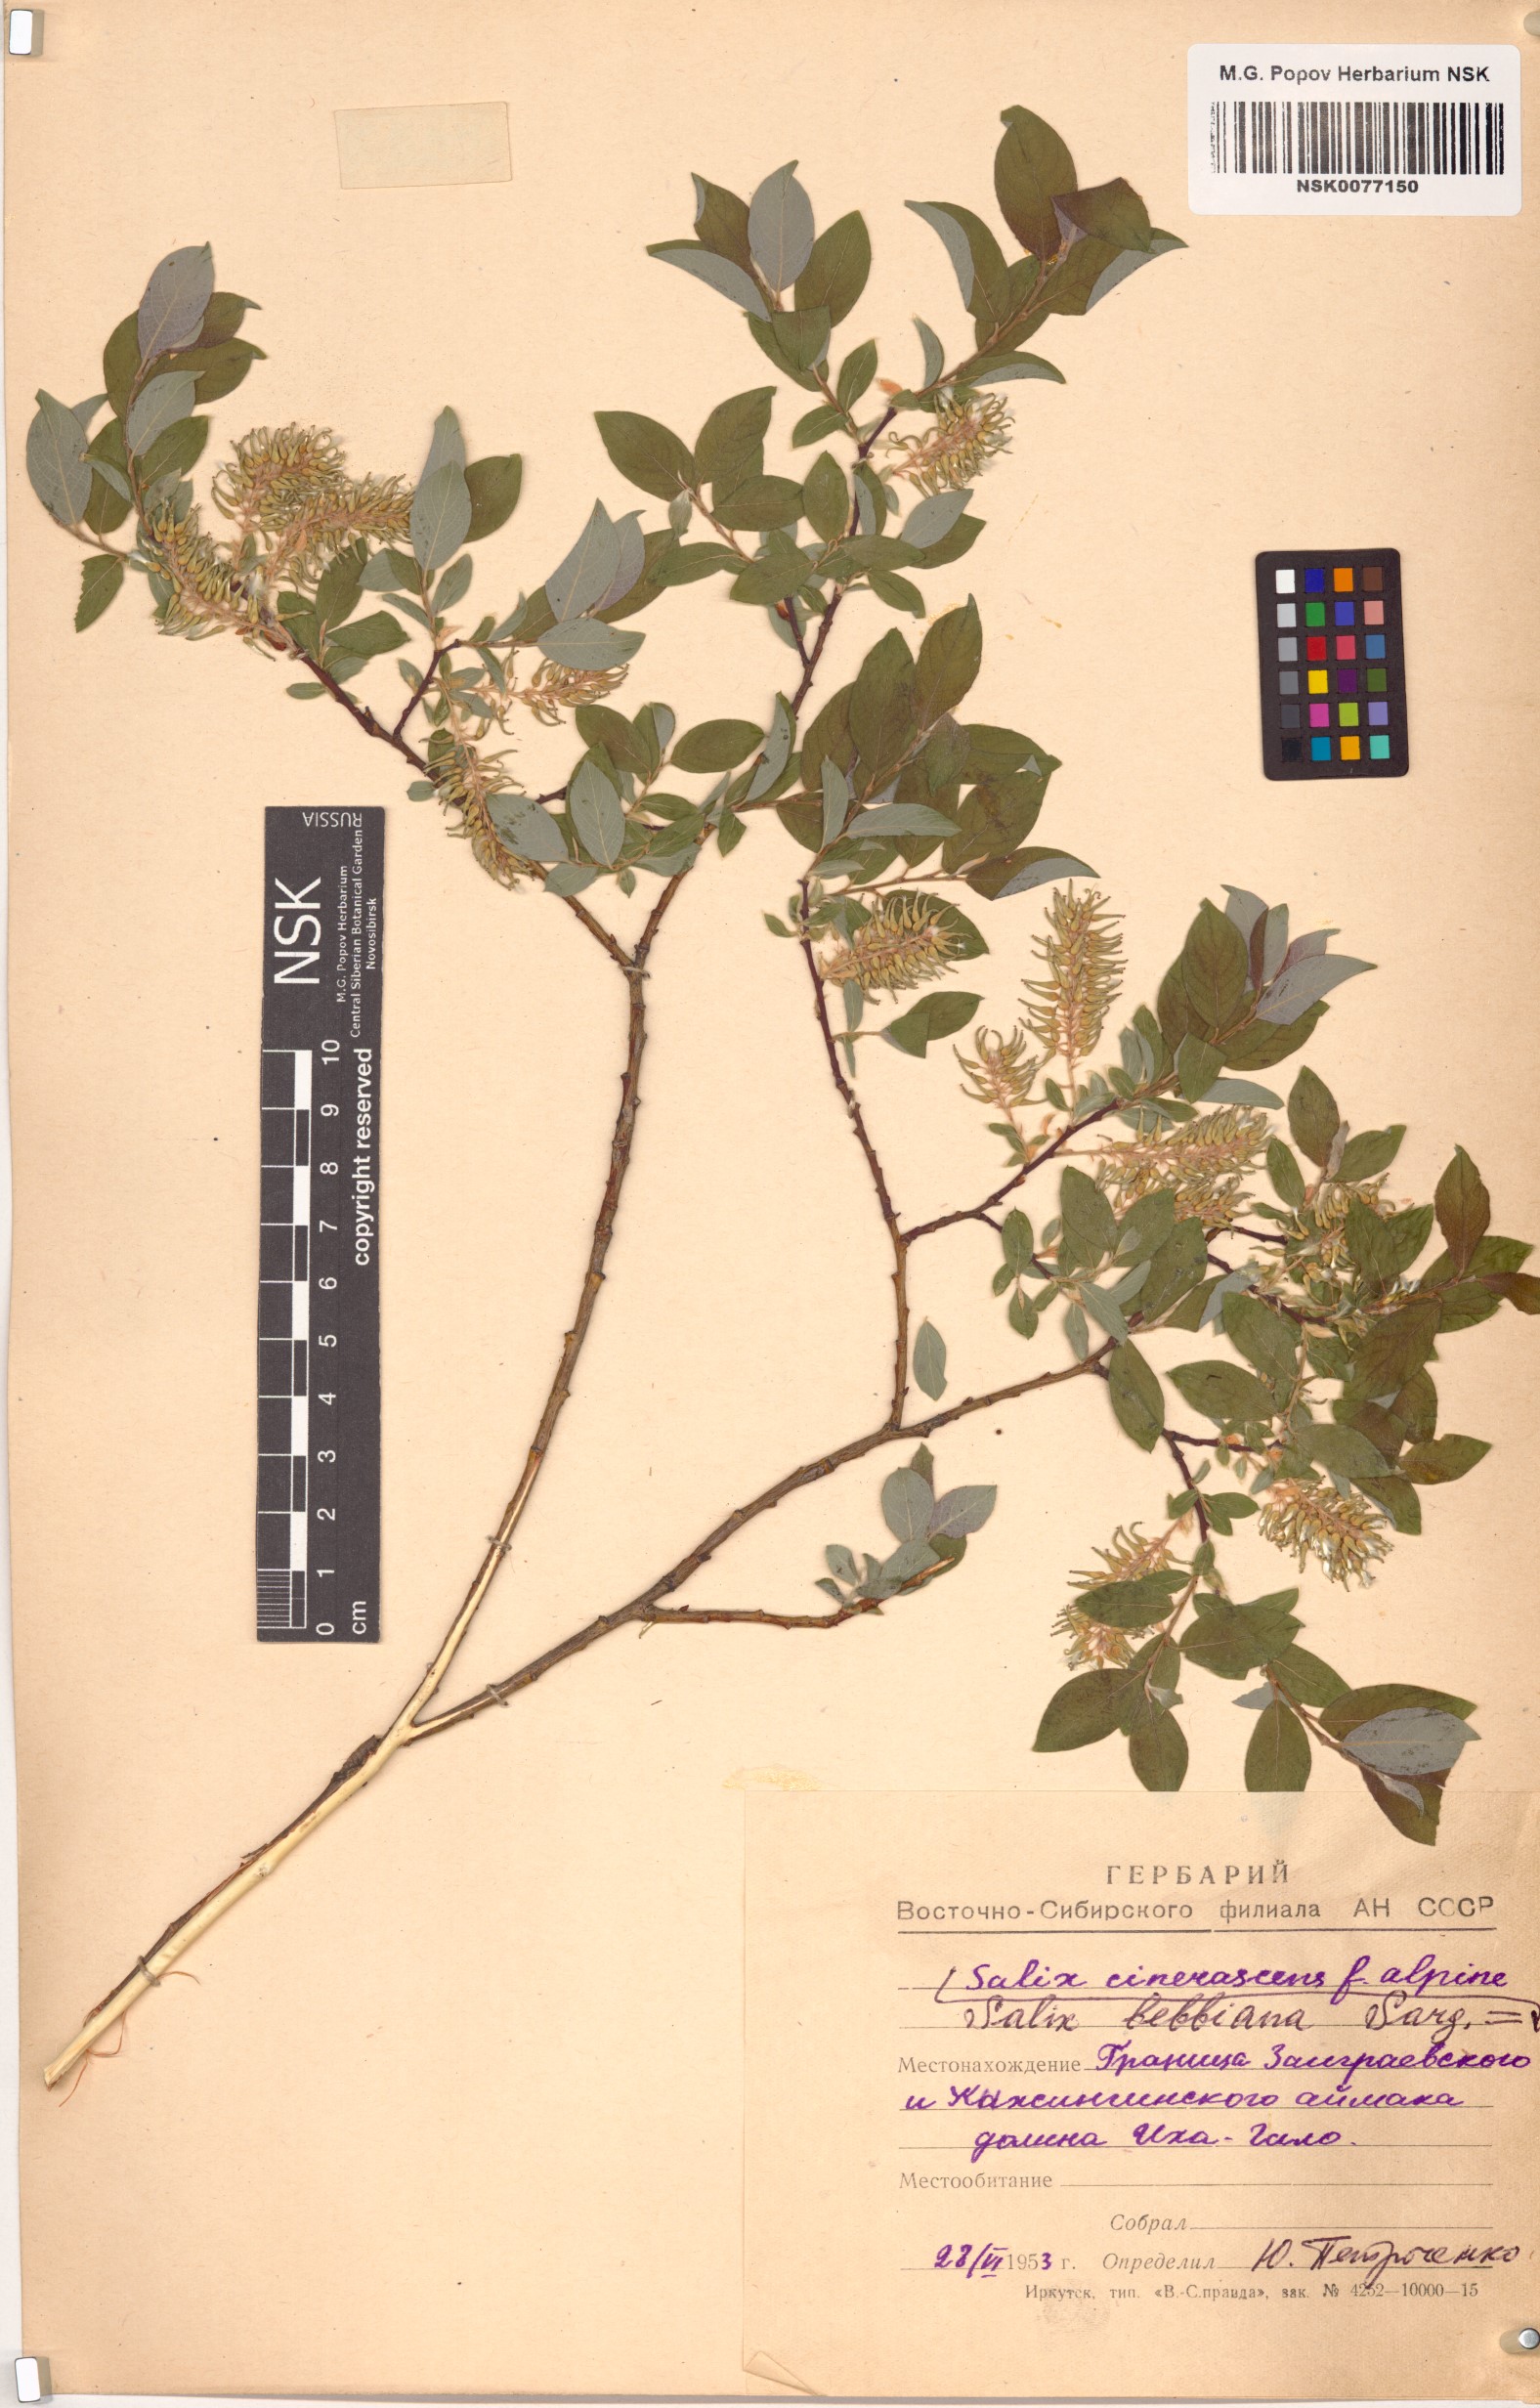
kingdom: Plantae
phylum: Tracheophyta
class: Magnoliopsida
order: Malpighiales
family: Salicaceae
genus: Salix
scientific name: Salix bebbiana
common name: Bebb's willow
